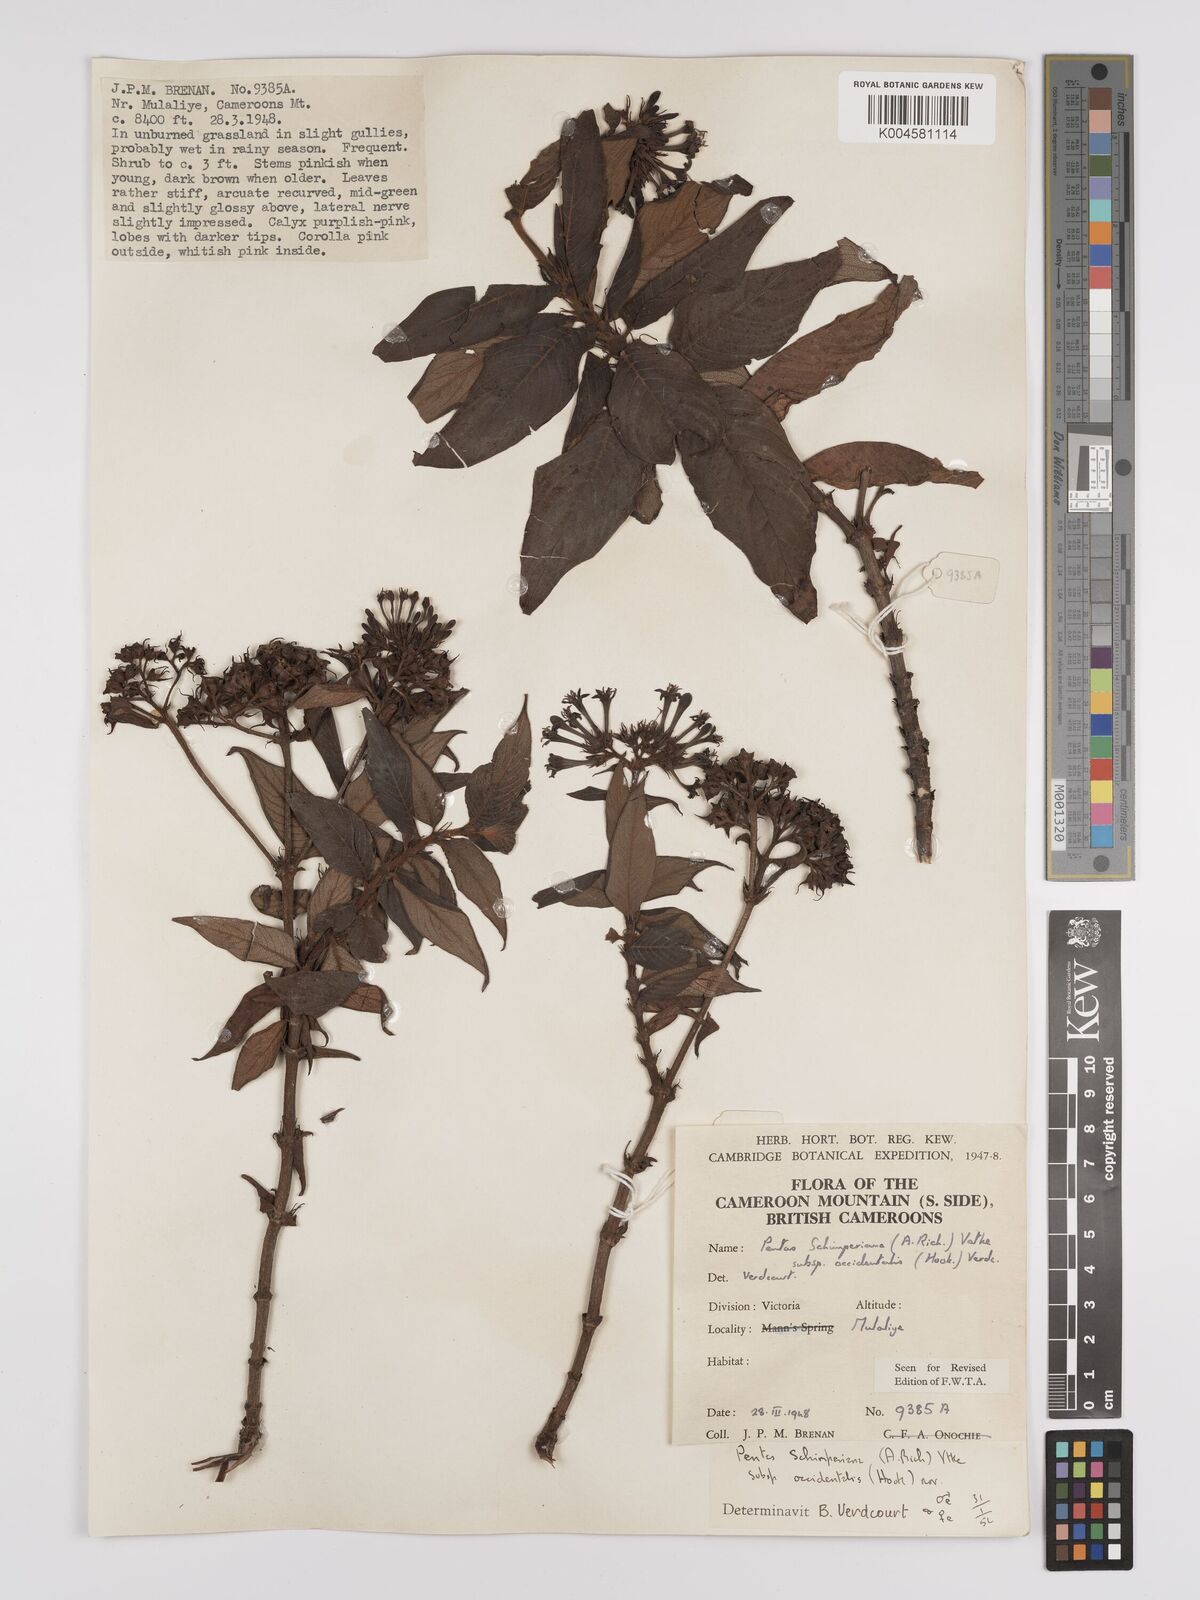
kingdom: Plantae
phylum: Tracheophyta
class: Magnoliopsida
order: Gentianales
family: Rubiaceae
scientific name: Rubiaceae
